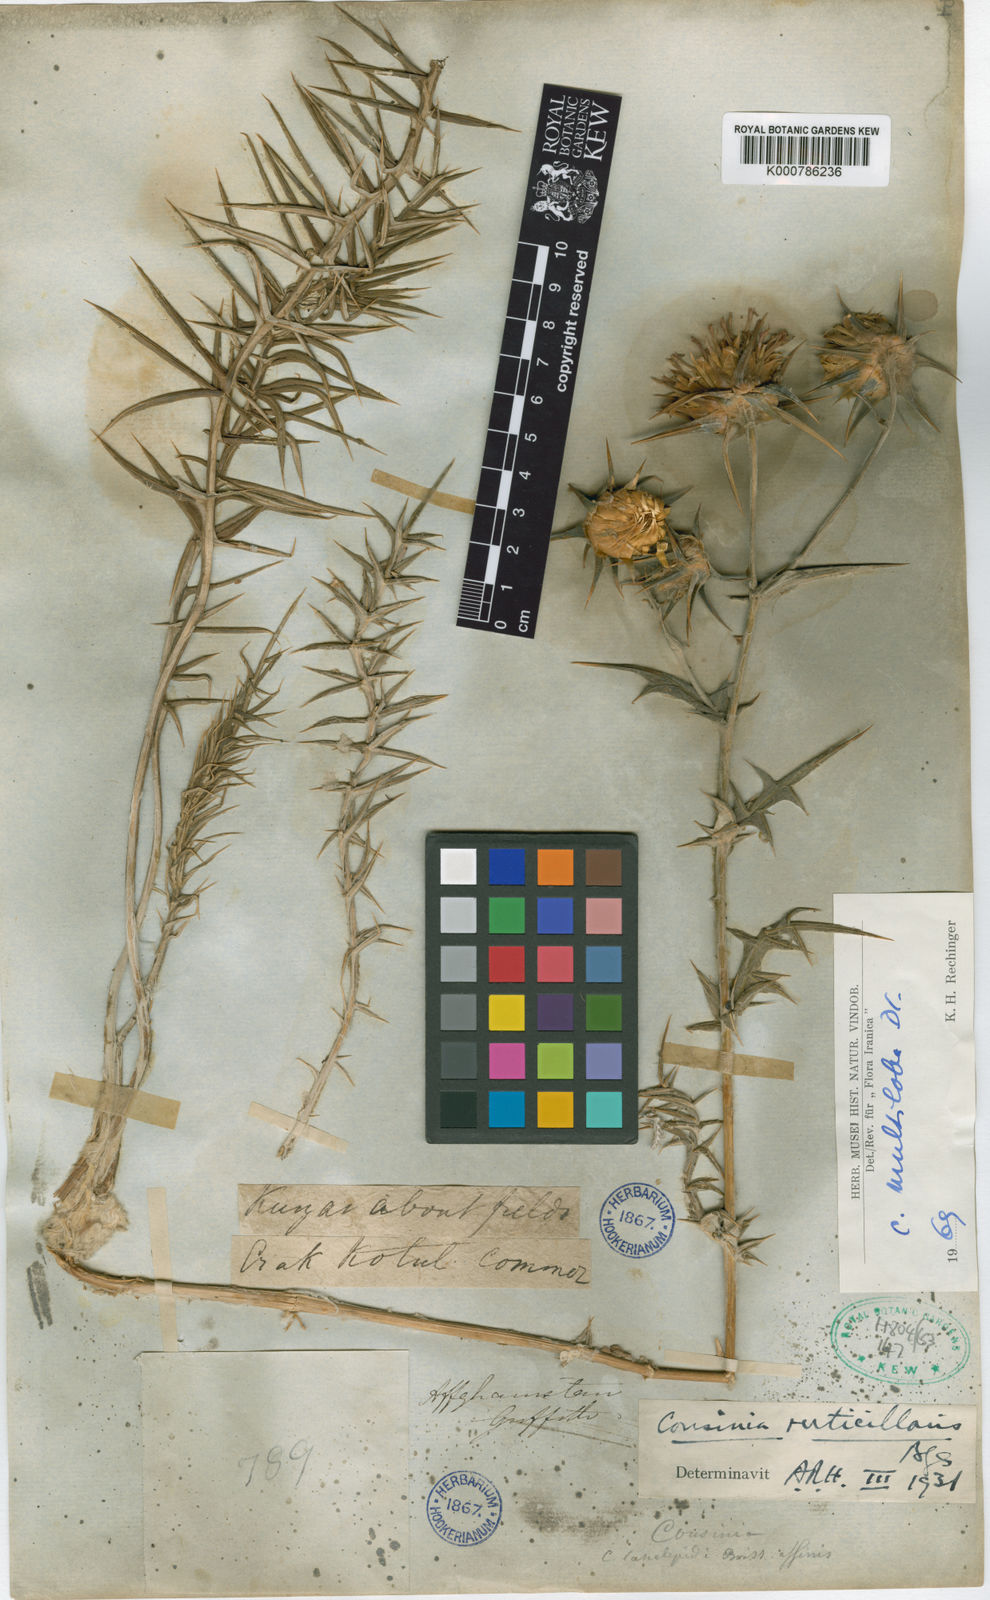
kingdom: Plantae
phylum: Tracheophyta
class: Magnoliopsida
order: Asterales
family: Asteraceae
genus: Cousinia
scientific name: Cousinia multiloba
